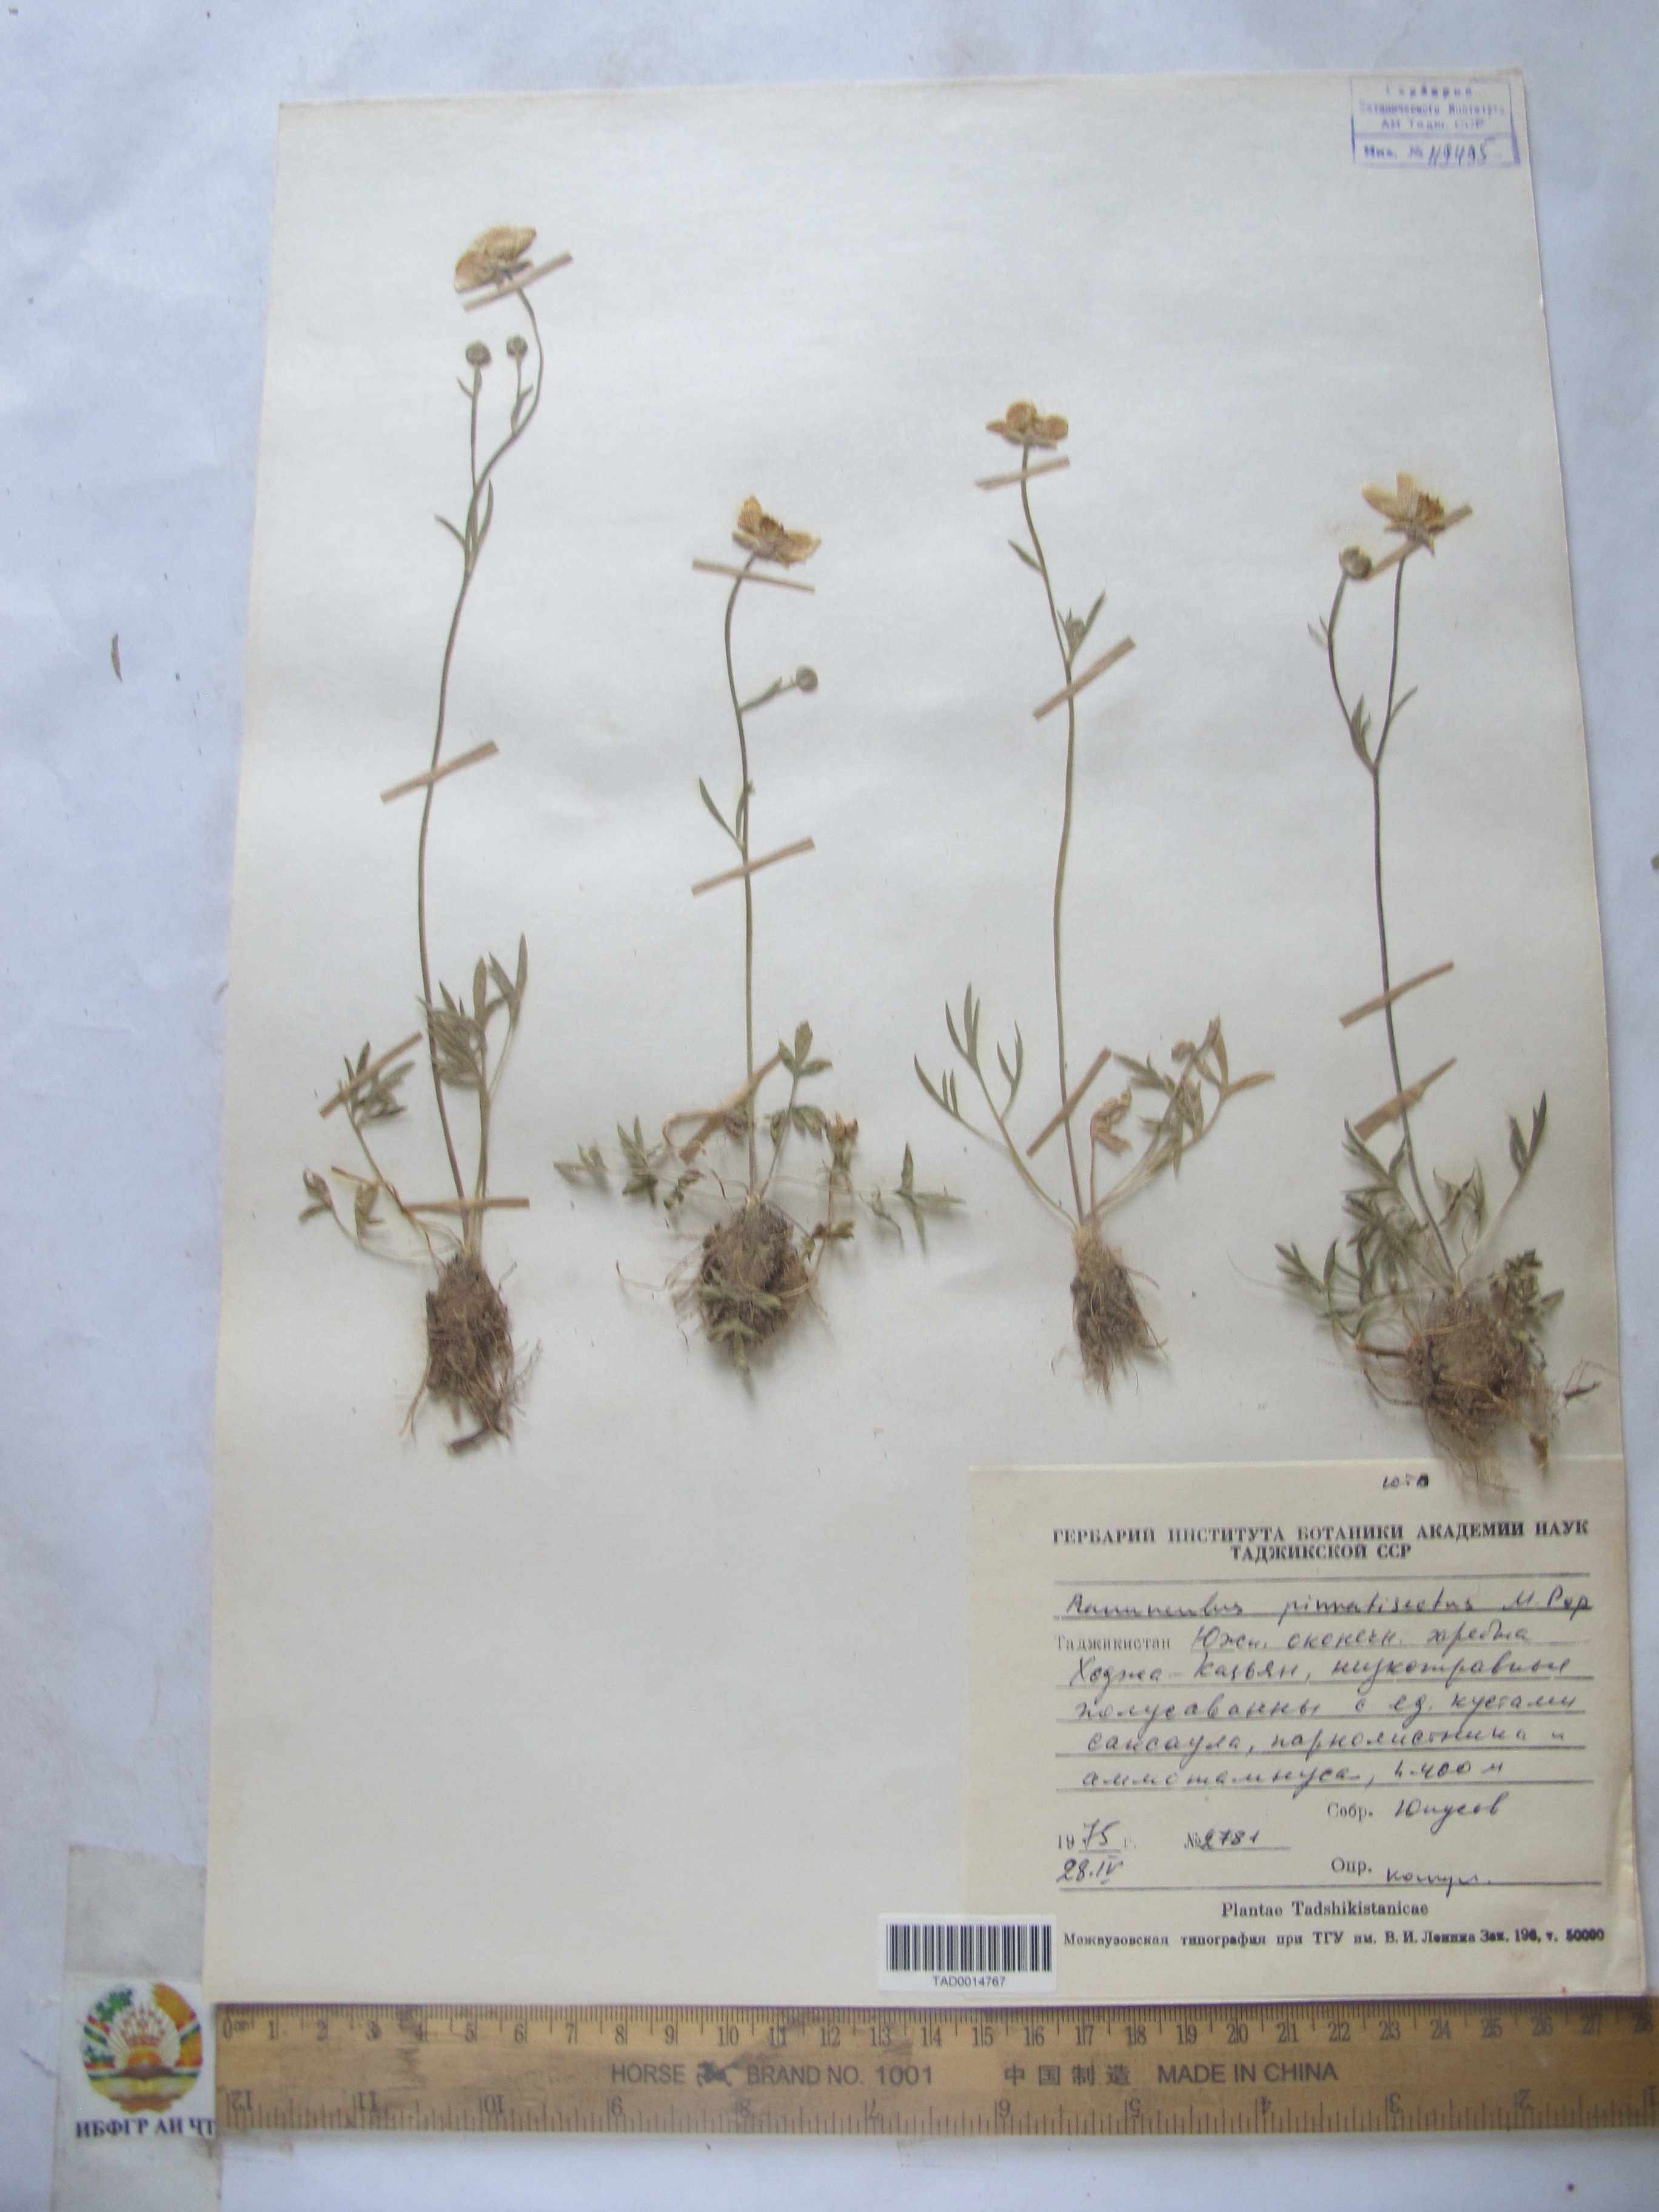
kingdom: Plantae
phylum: Tracheophyta
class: Magnoliopsida
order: Ranunculales
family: Ranunculaceae
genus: Ranunculus
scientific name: Ranunculus pinnatisectus
